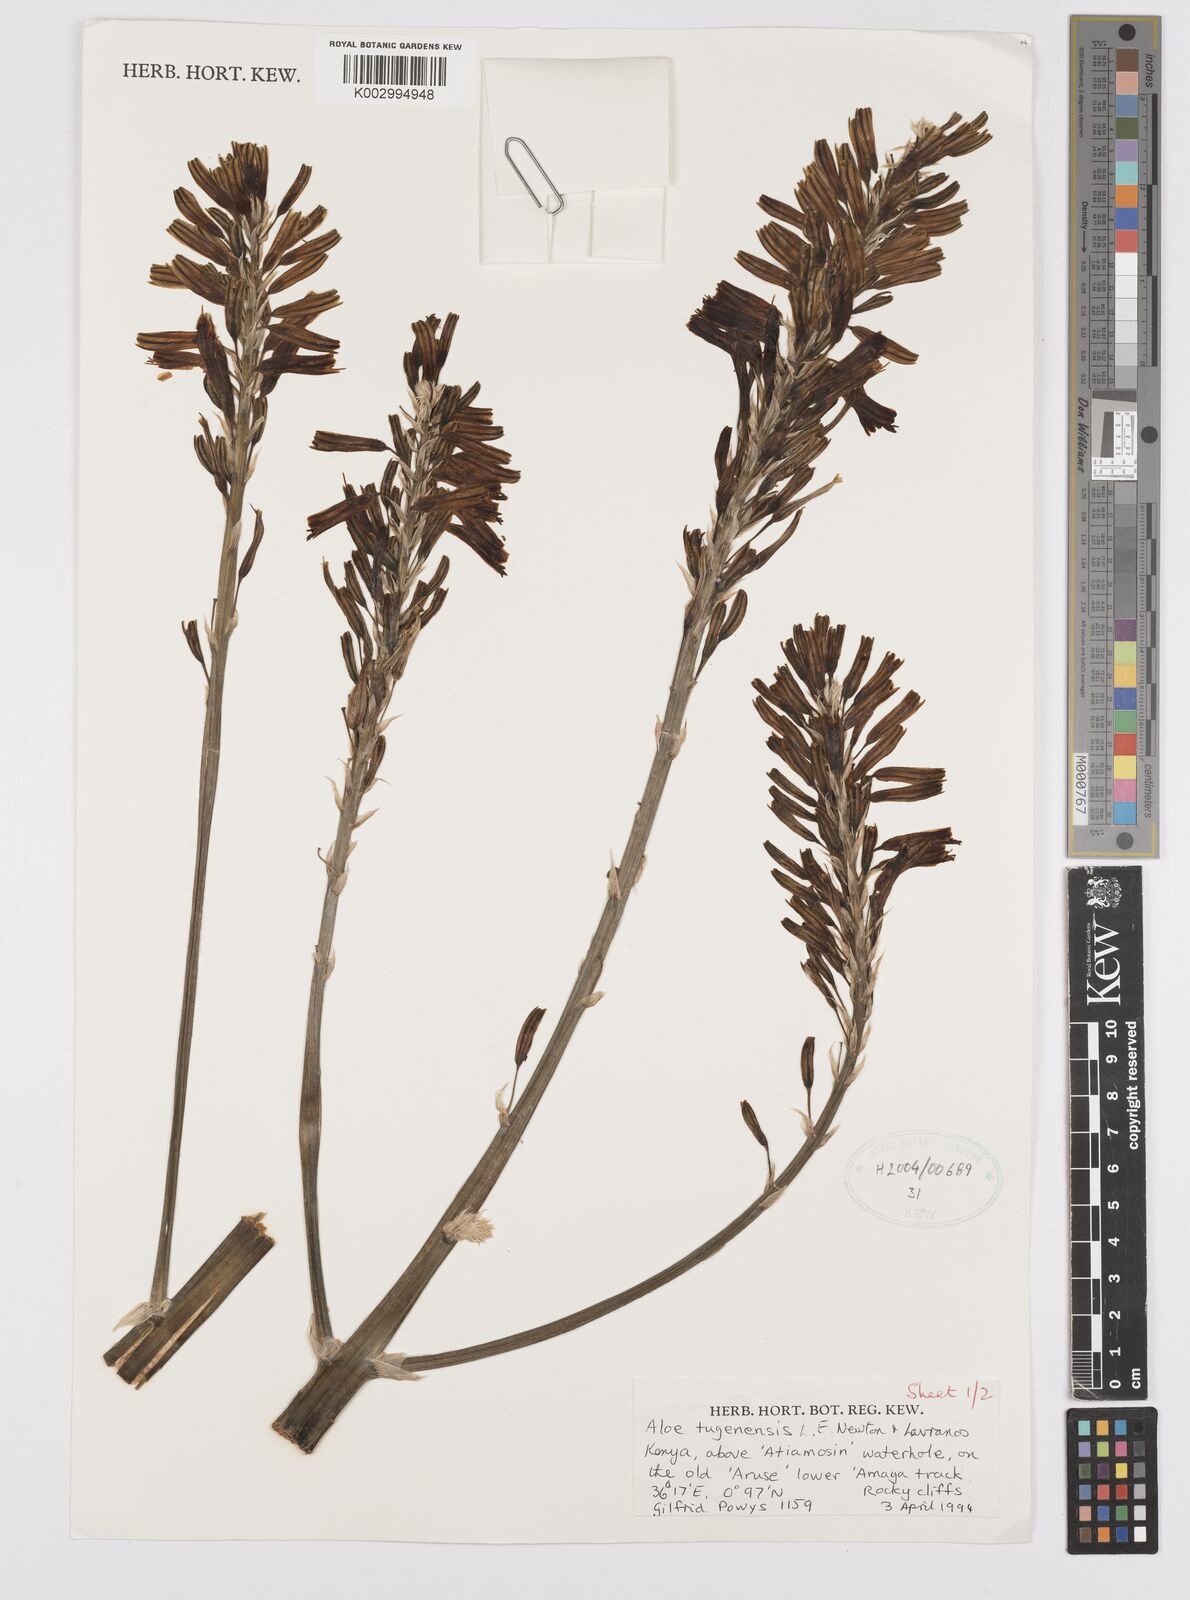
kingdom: Plantae
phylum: Tracheophyta
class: Liliopsida
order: Asparagales
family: Asphodelaceae
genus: Aloe
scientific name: Aloe archeri
